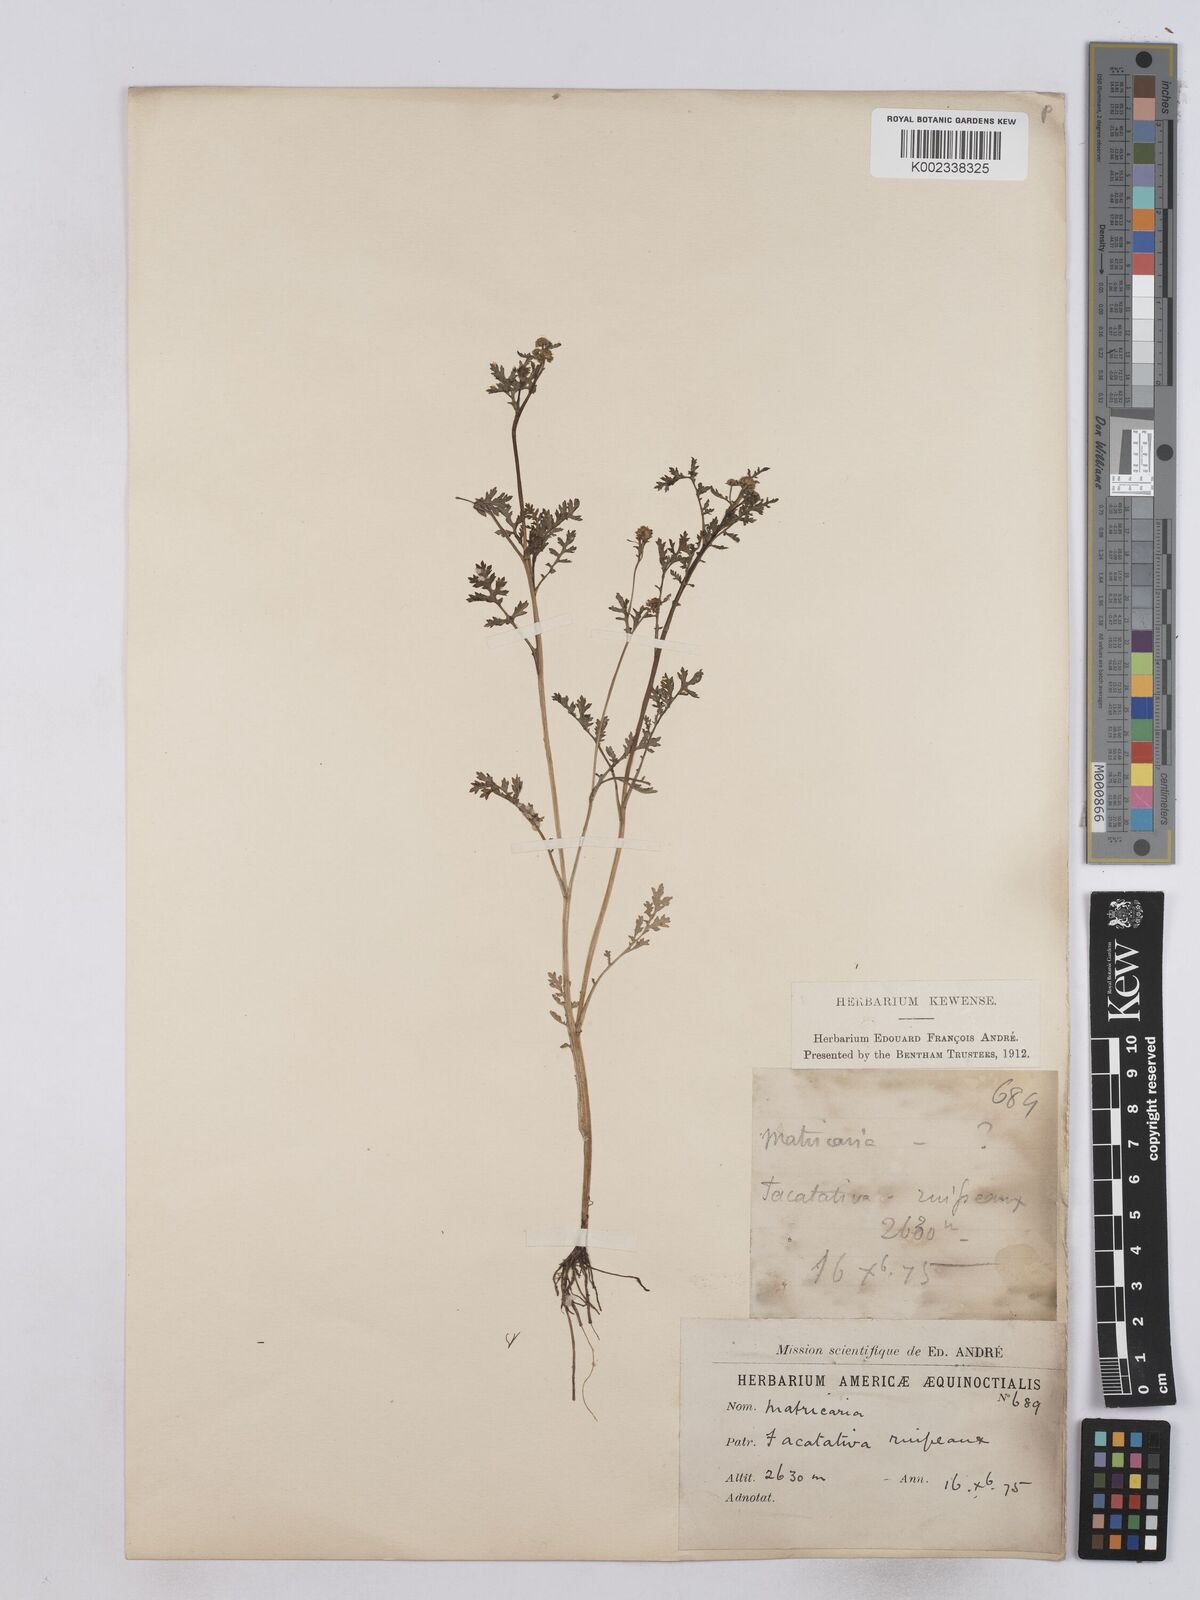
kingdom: Plantae
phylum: Tracheophyta
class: Magnoliopsida
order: Asterales
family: Asteraceae
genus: Matricaria
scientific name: Matricaria chamomilla
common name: Scented mayweed
